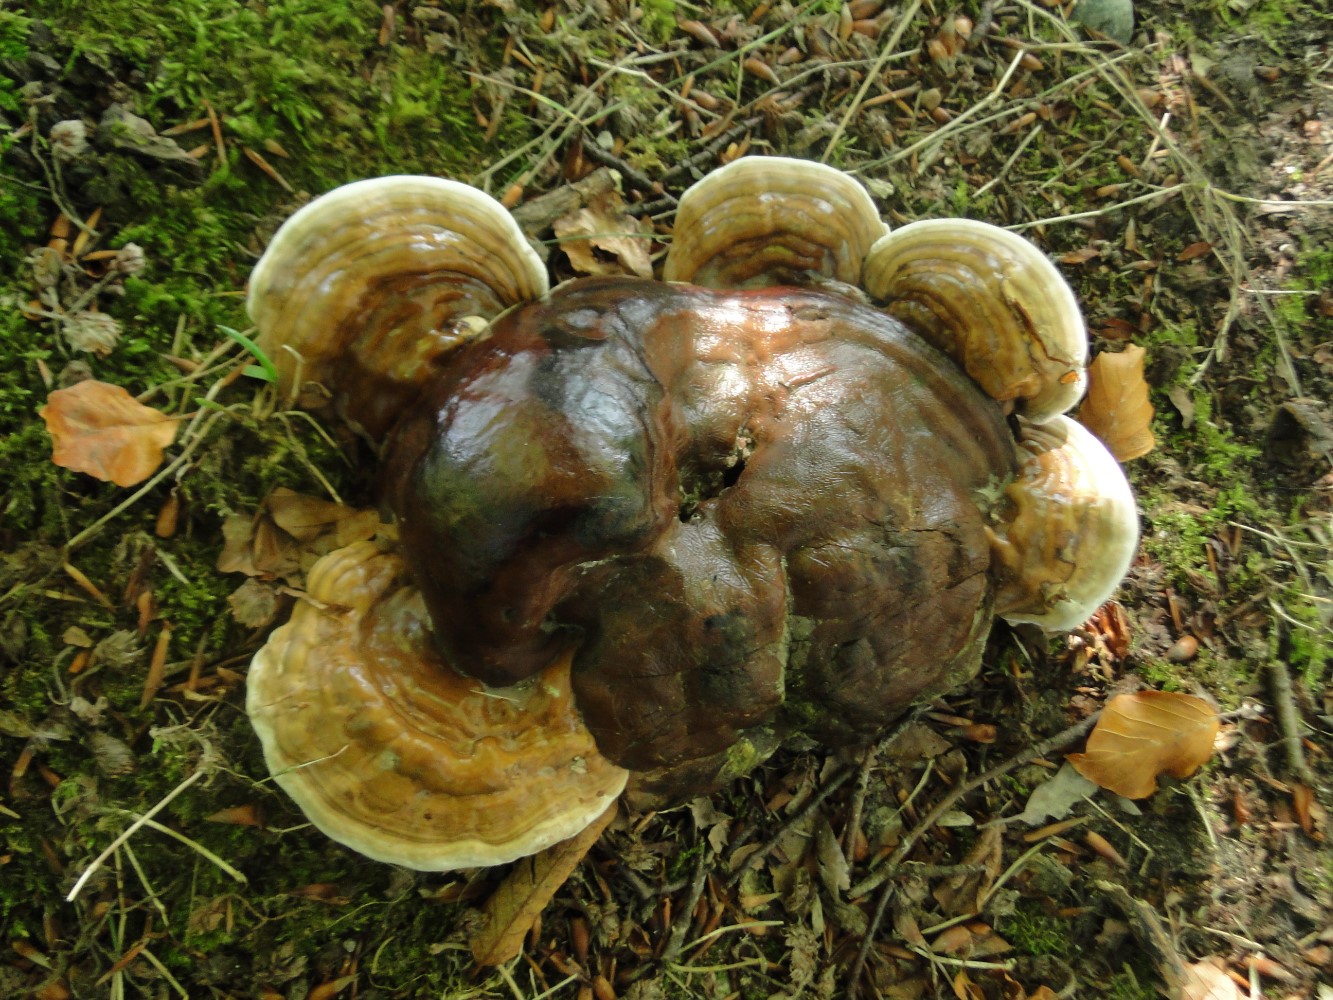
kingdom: Fungi
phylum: Basidiomycota
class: Agaricomycetes
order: Polyporales
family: Polyporaceae
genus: Ganoderma
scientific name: Ganoderma pfeifferi
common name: kobberrød lakporesvamp
